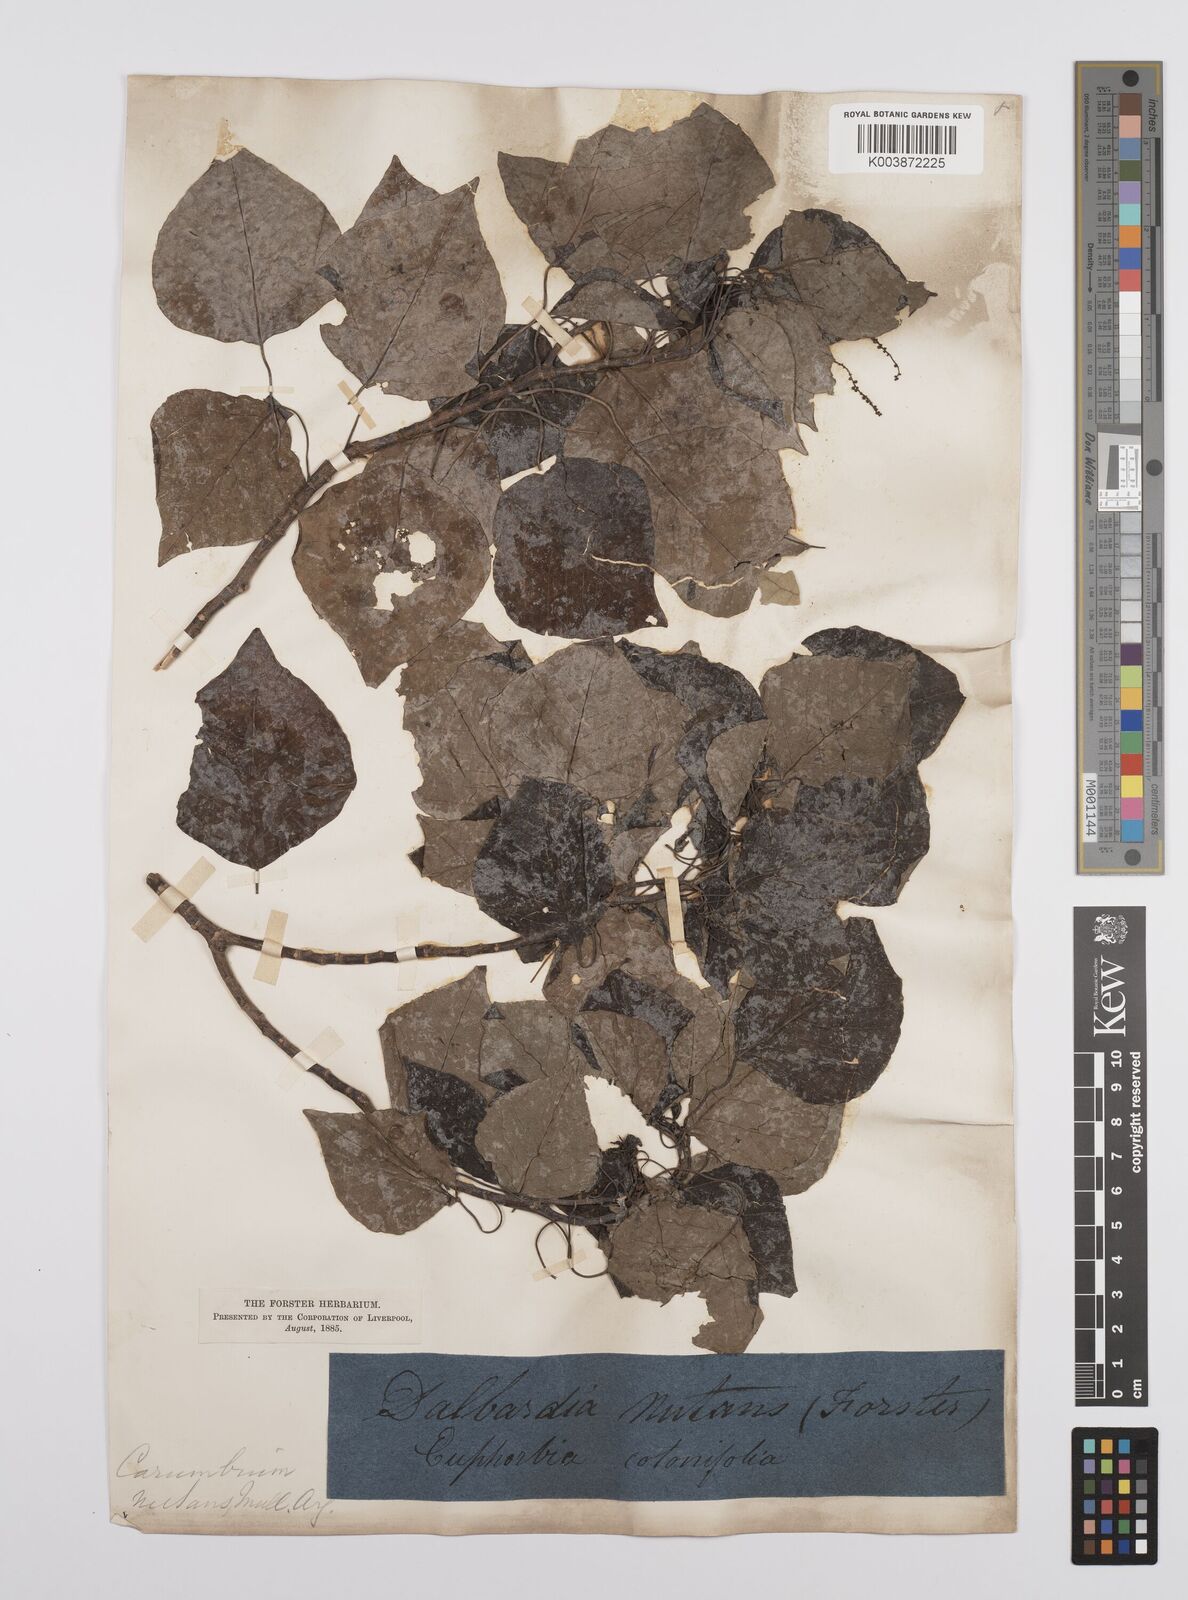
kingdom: Plantae
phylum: Tracheophyta
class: Magnoliopsida
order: Malpighiales
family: Euphorbiaceae
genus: Homalanthus
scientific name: Homalanthus nutans
